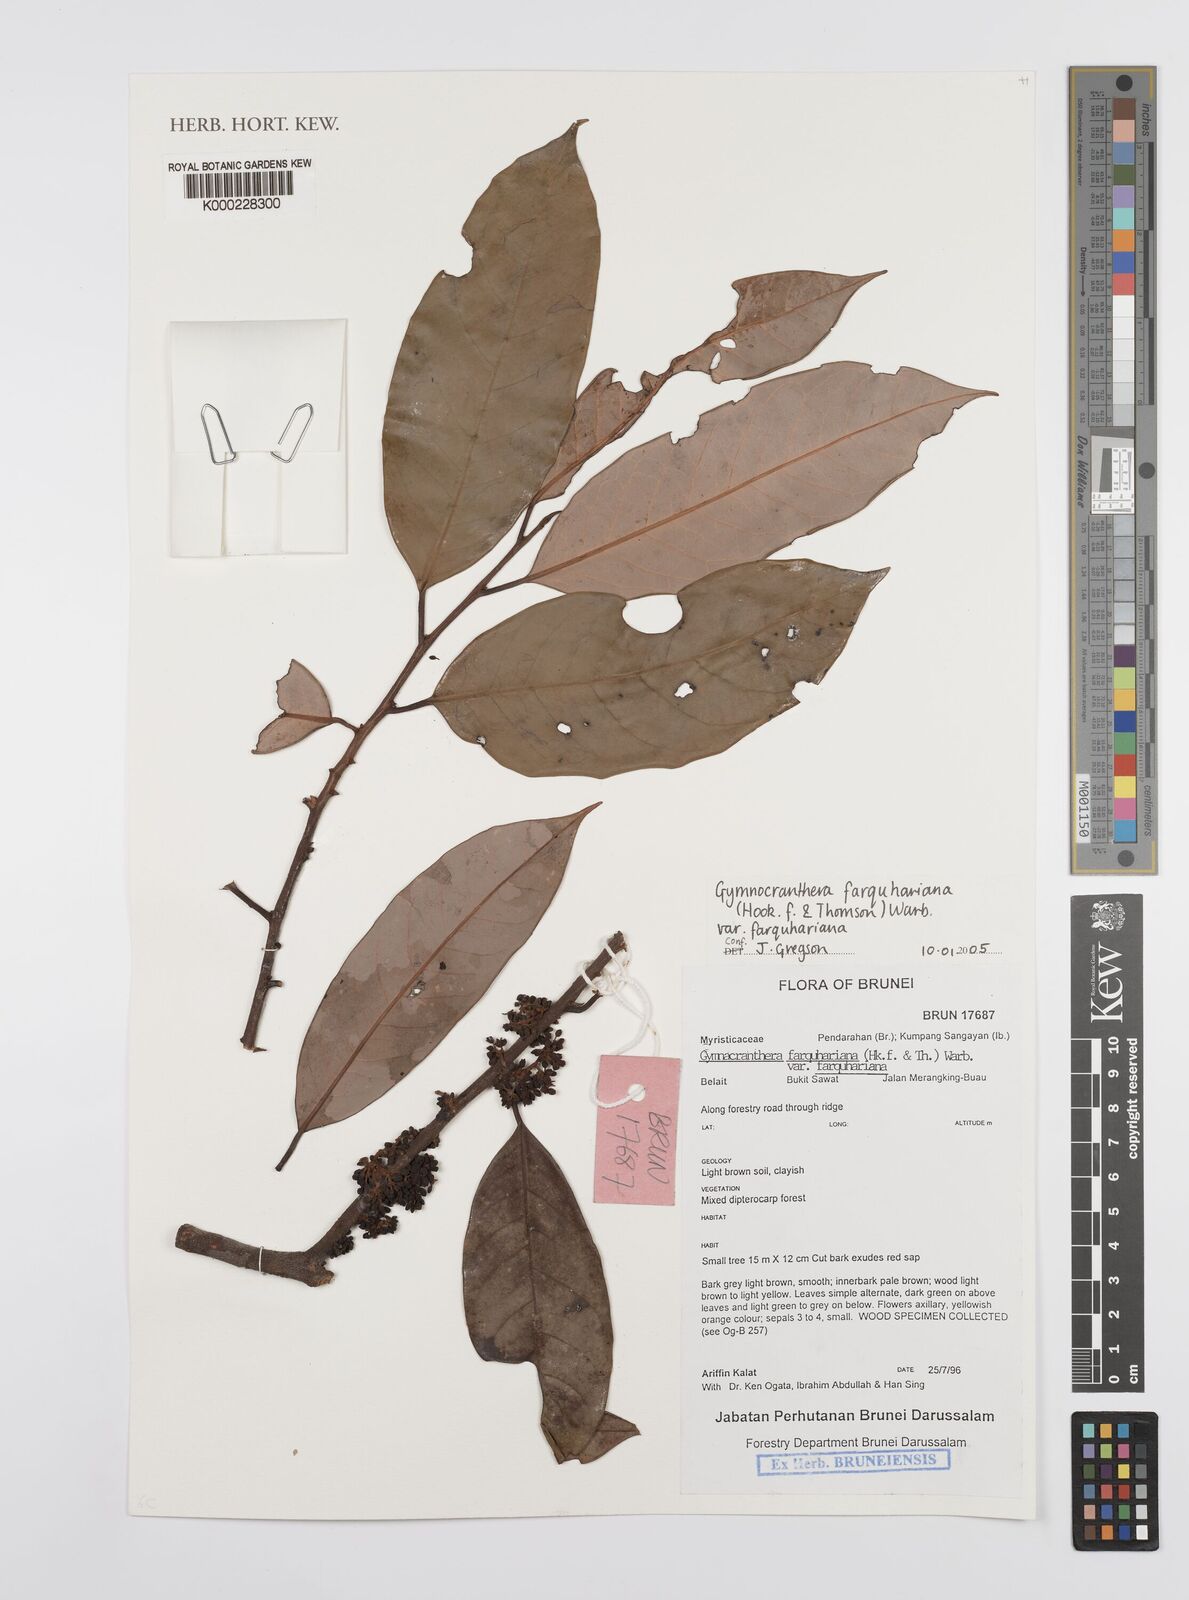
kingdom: Plantae
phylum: Tracheophyta
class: Magnoliopsida
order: Magnoliales
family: Myristicaceae
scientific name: Myristicaceae
